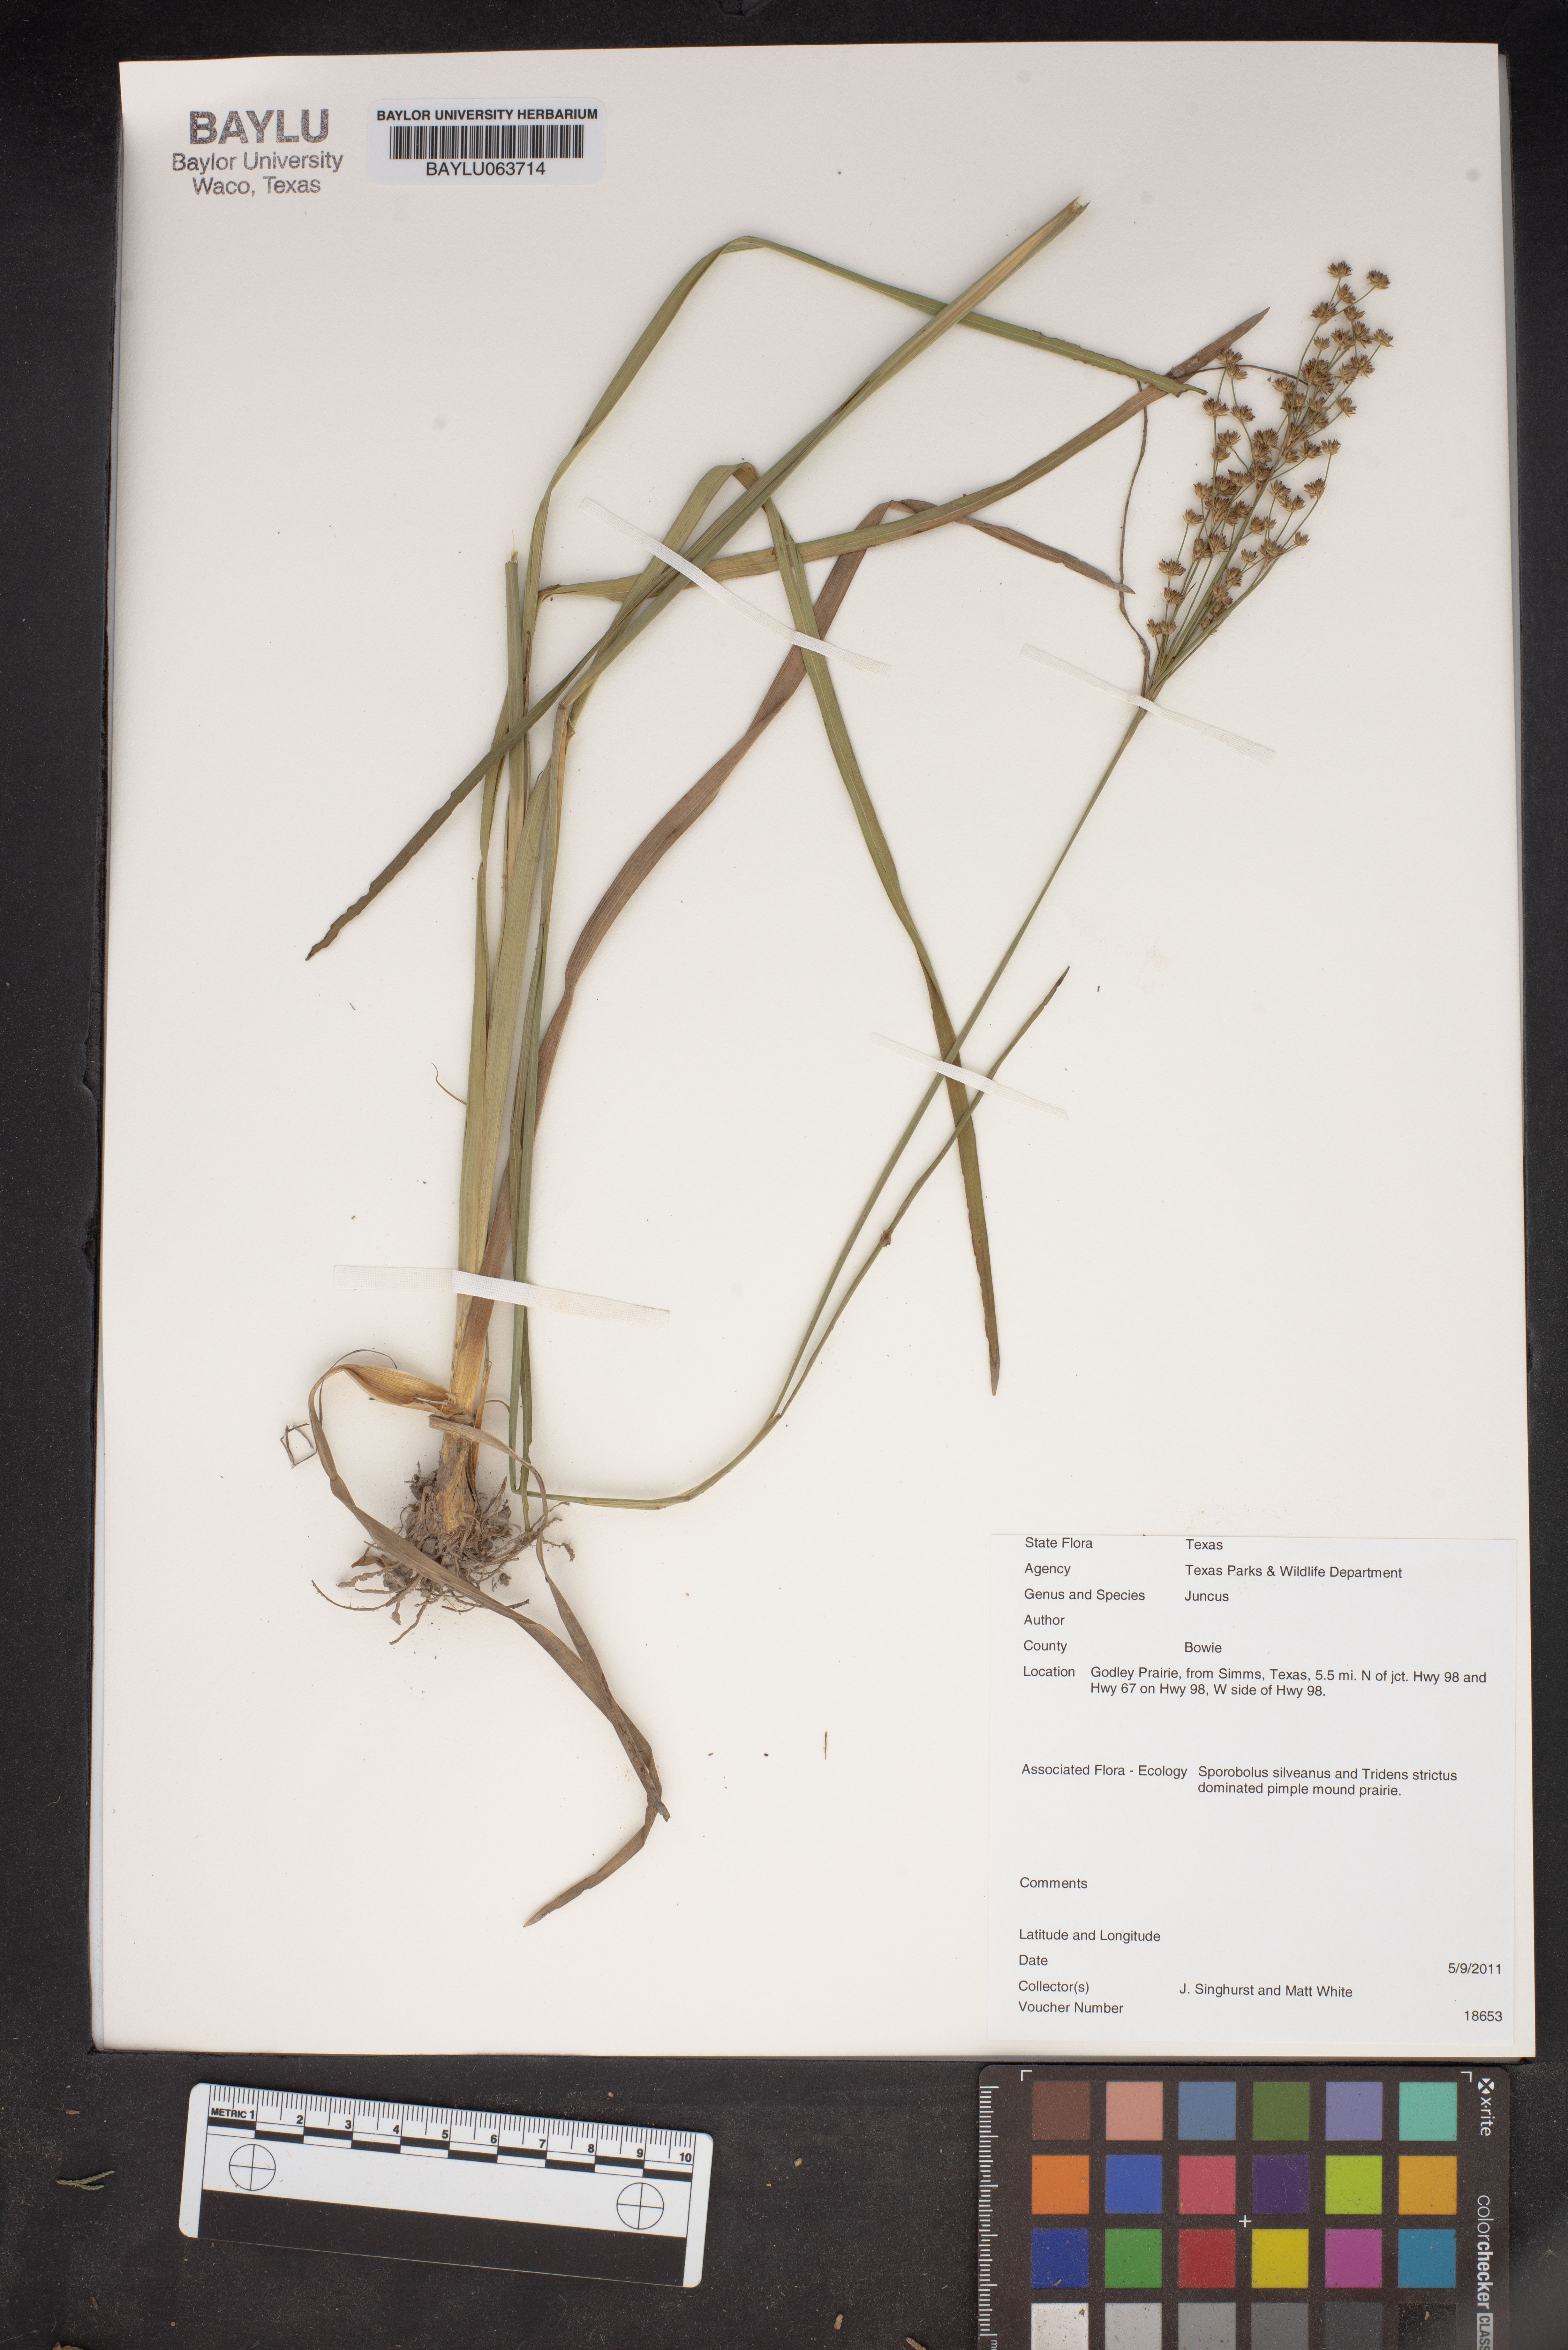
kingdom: Plantae
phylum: Tracheophyta
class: Liliopsida
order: Poales
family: Juncaceae
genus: Juncus
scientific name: Juncus
